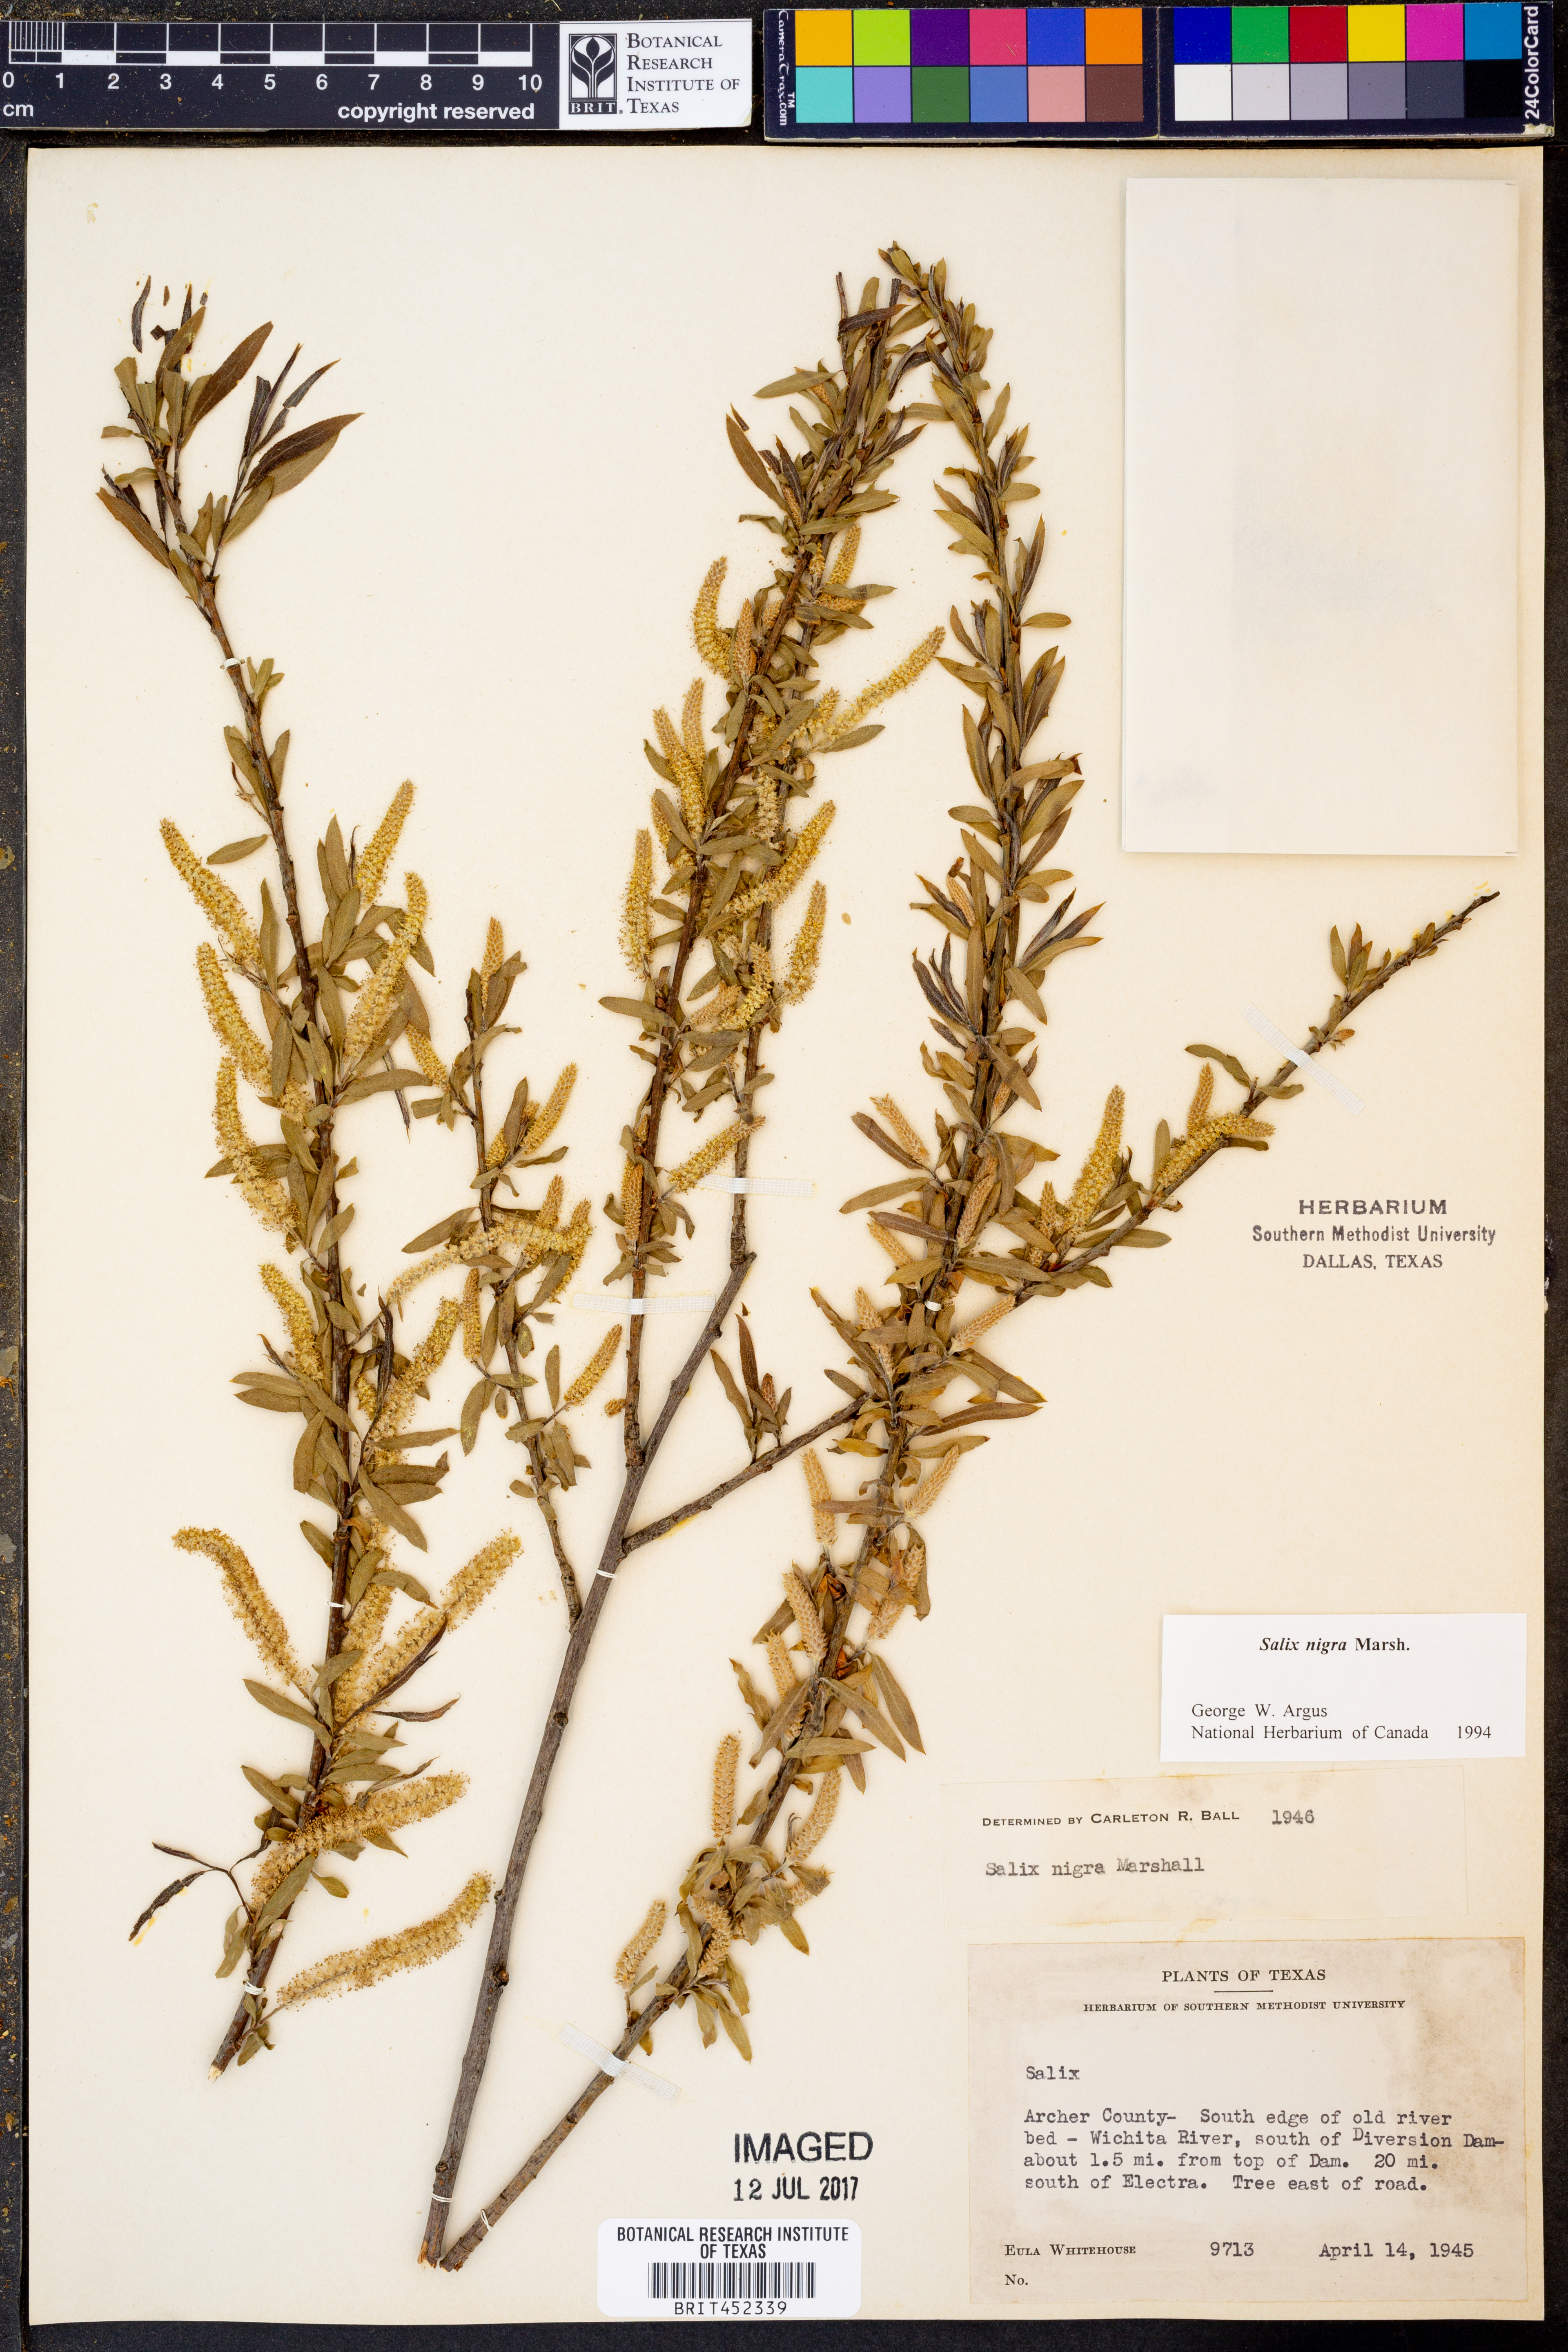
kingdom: Plantae
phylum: Tracheophyta
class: Magnoliopsida
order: Malpighiales
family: Salicaceae
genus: Salix
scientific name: Salix nigra
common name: Black willow
